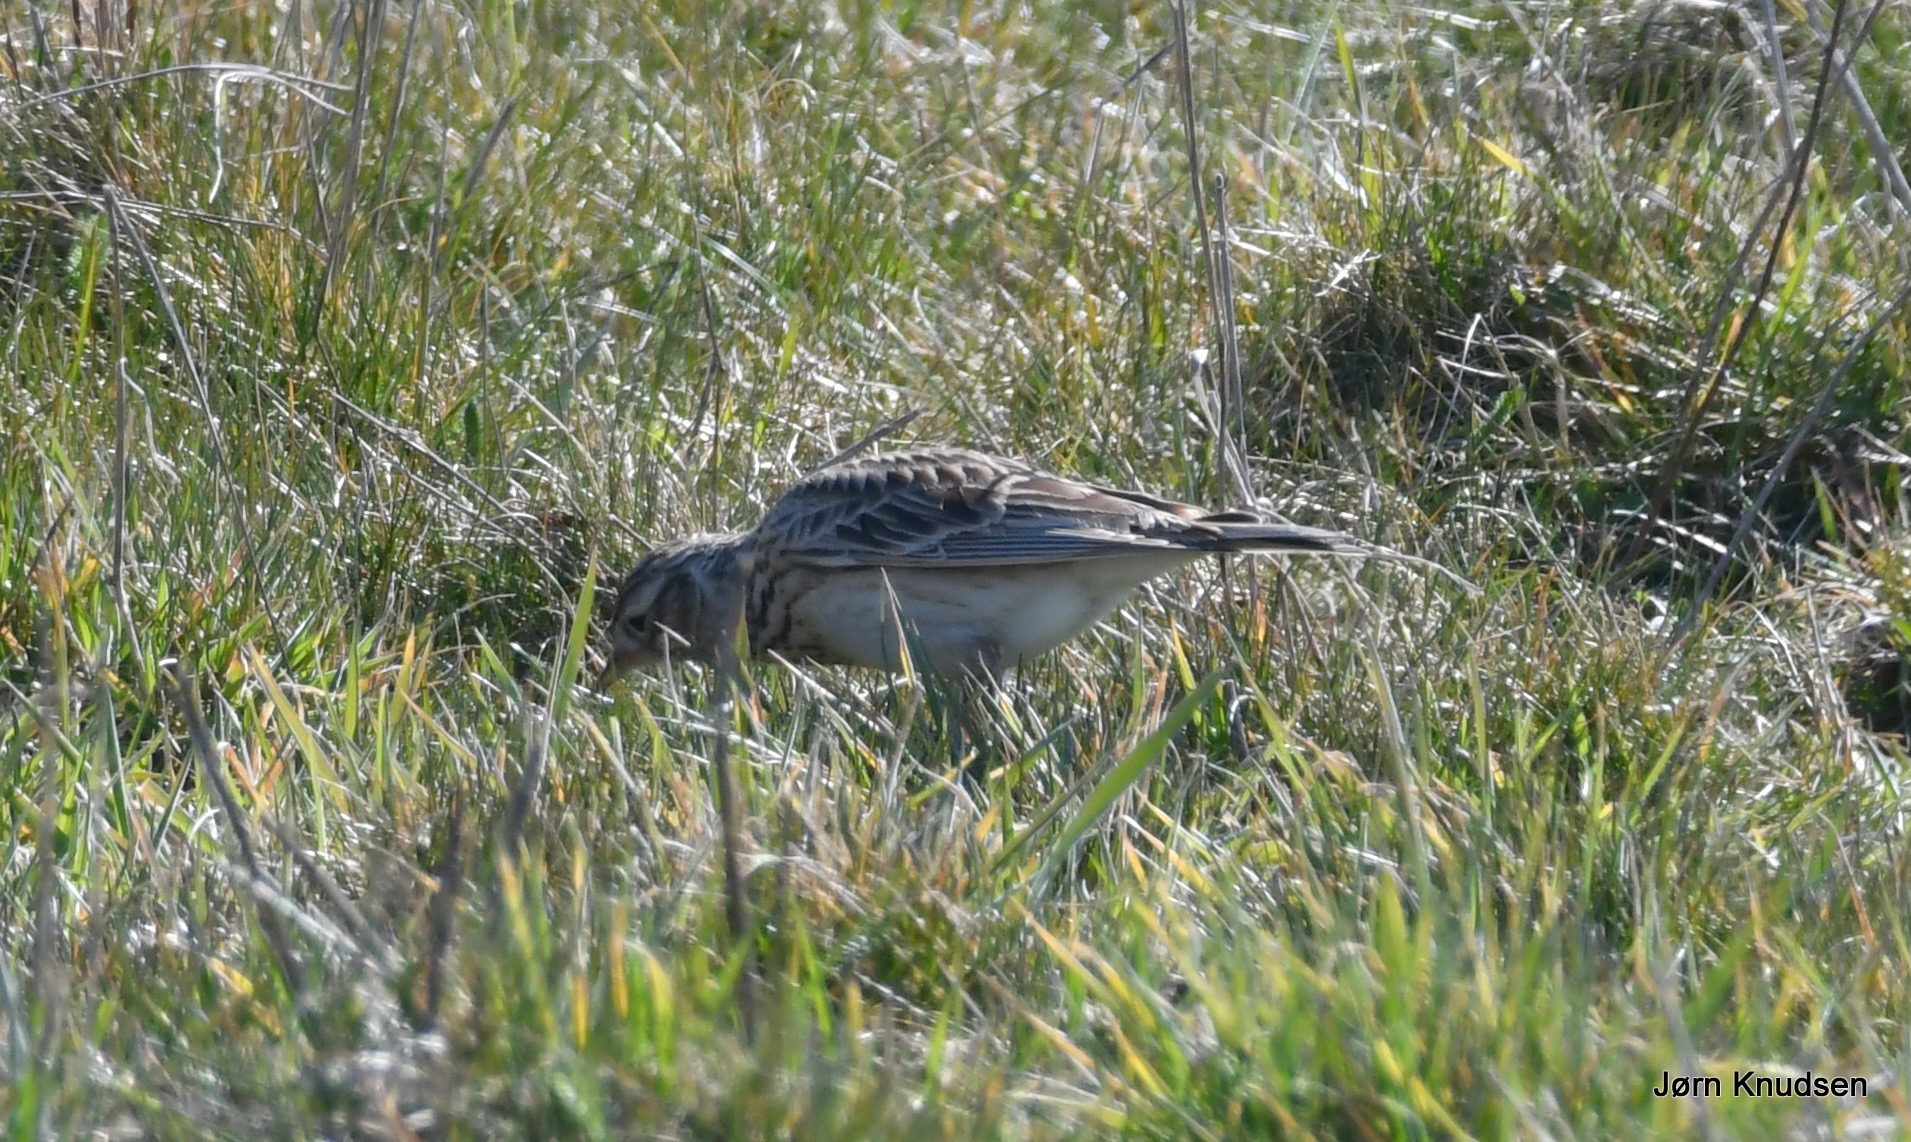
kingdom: Animalia
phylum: Chordata
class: Aves
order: Passeriformes
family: Alaudidae
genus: Alauda
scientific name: Alauda arvensis
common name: Sanglærke
